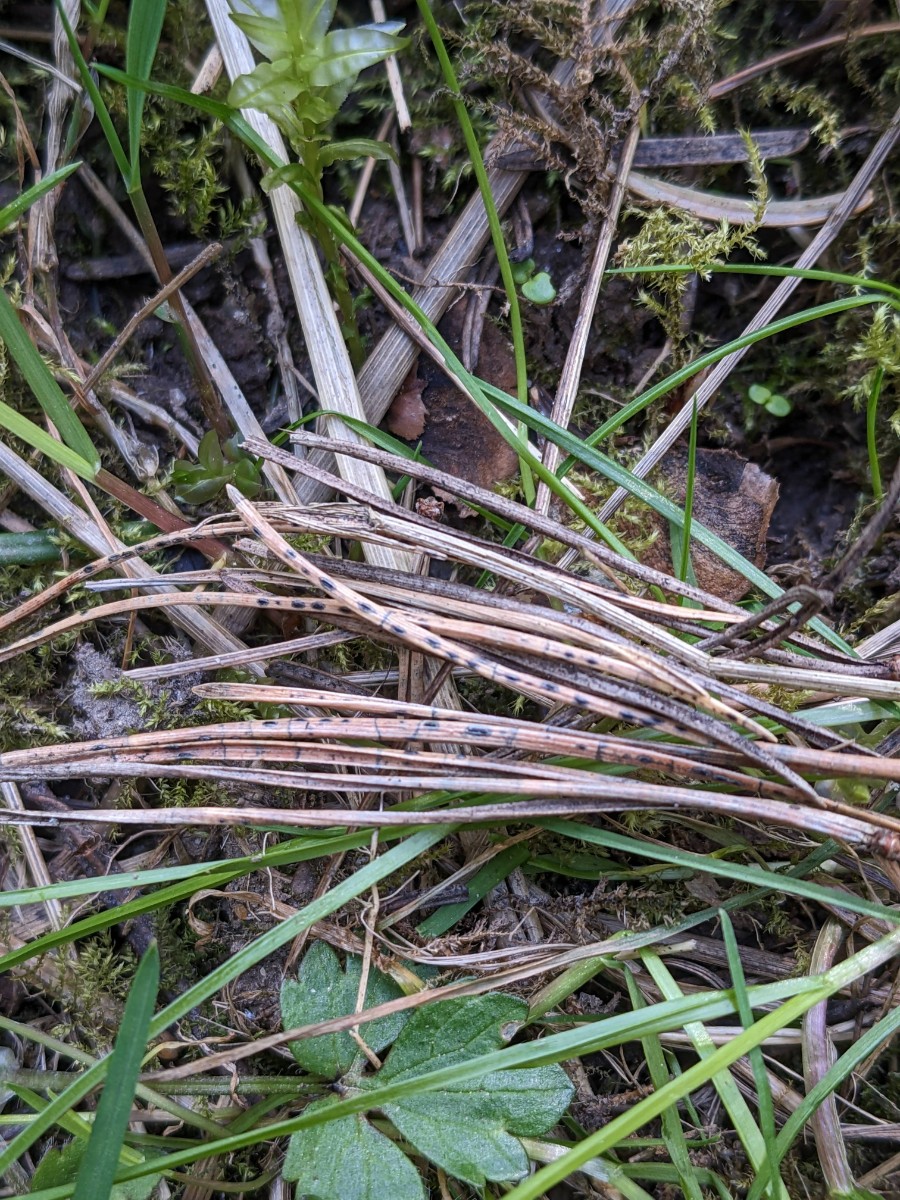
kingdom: Fungi
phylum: Ascomycota
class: Leotiomycetes
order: Rhytismatales
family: Rhytismataceae
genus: Lophodermium
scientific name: Lophodermium pinastri
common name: fyrre-fureplet
